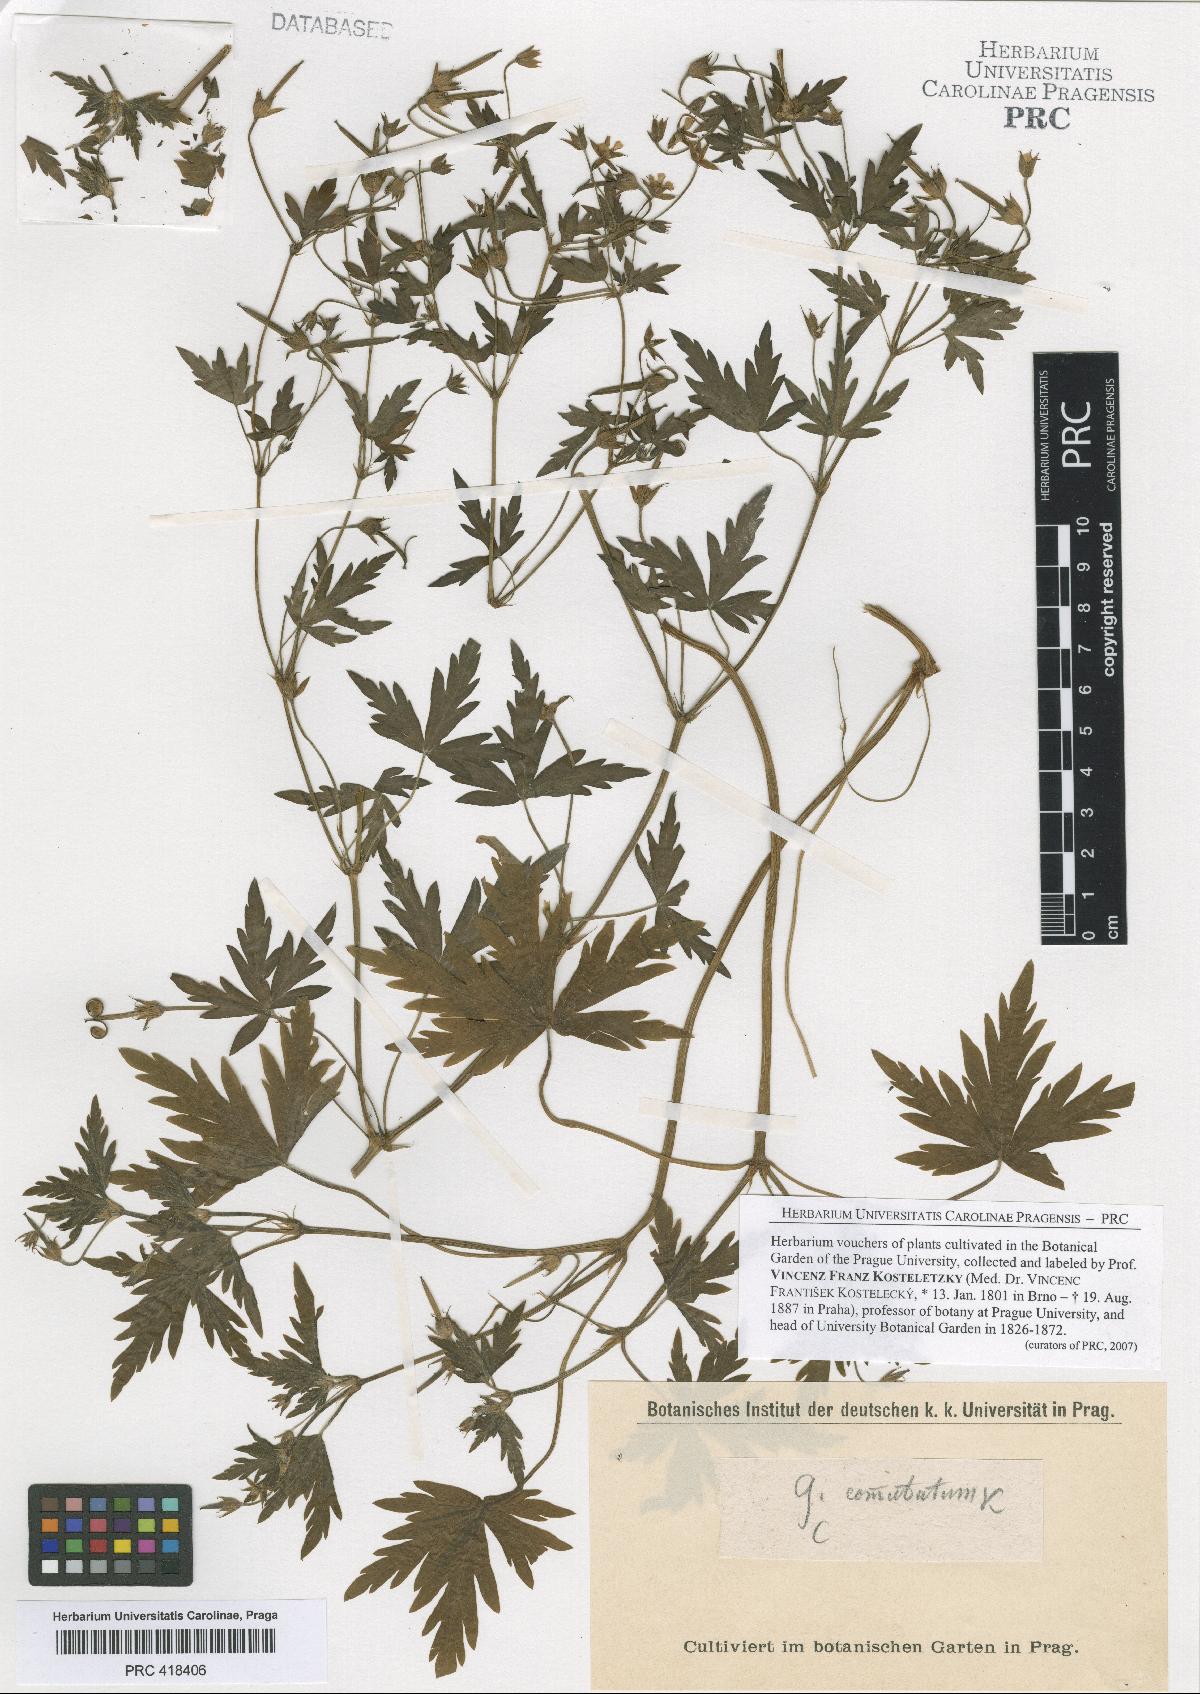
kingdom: Plantae
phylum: Tracheophyta
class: Magnoliopsida
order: Geraniales
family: Geraniaceae
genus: Geranium
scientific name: Geranium sibiricum
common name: Siberian crane's-bill
